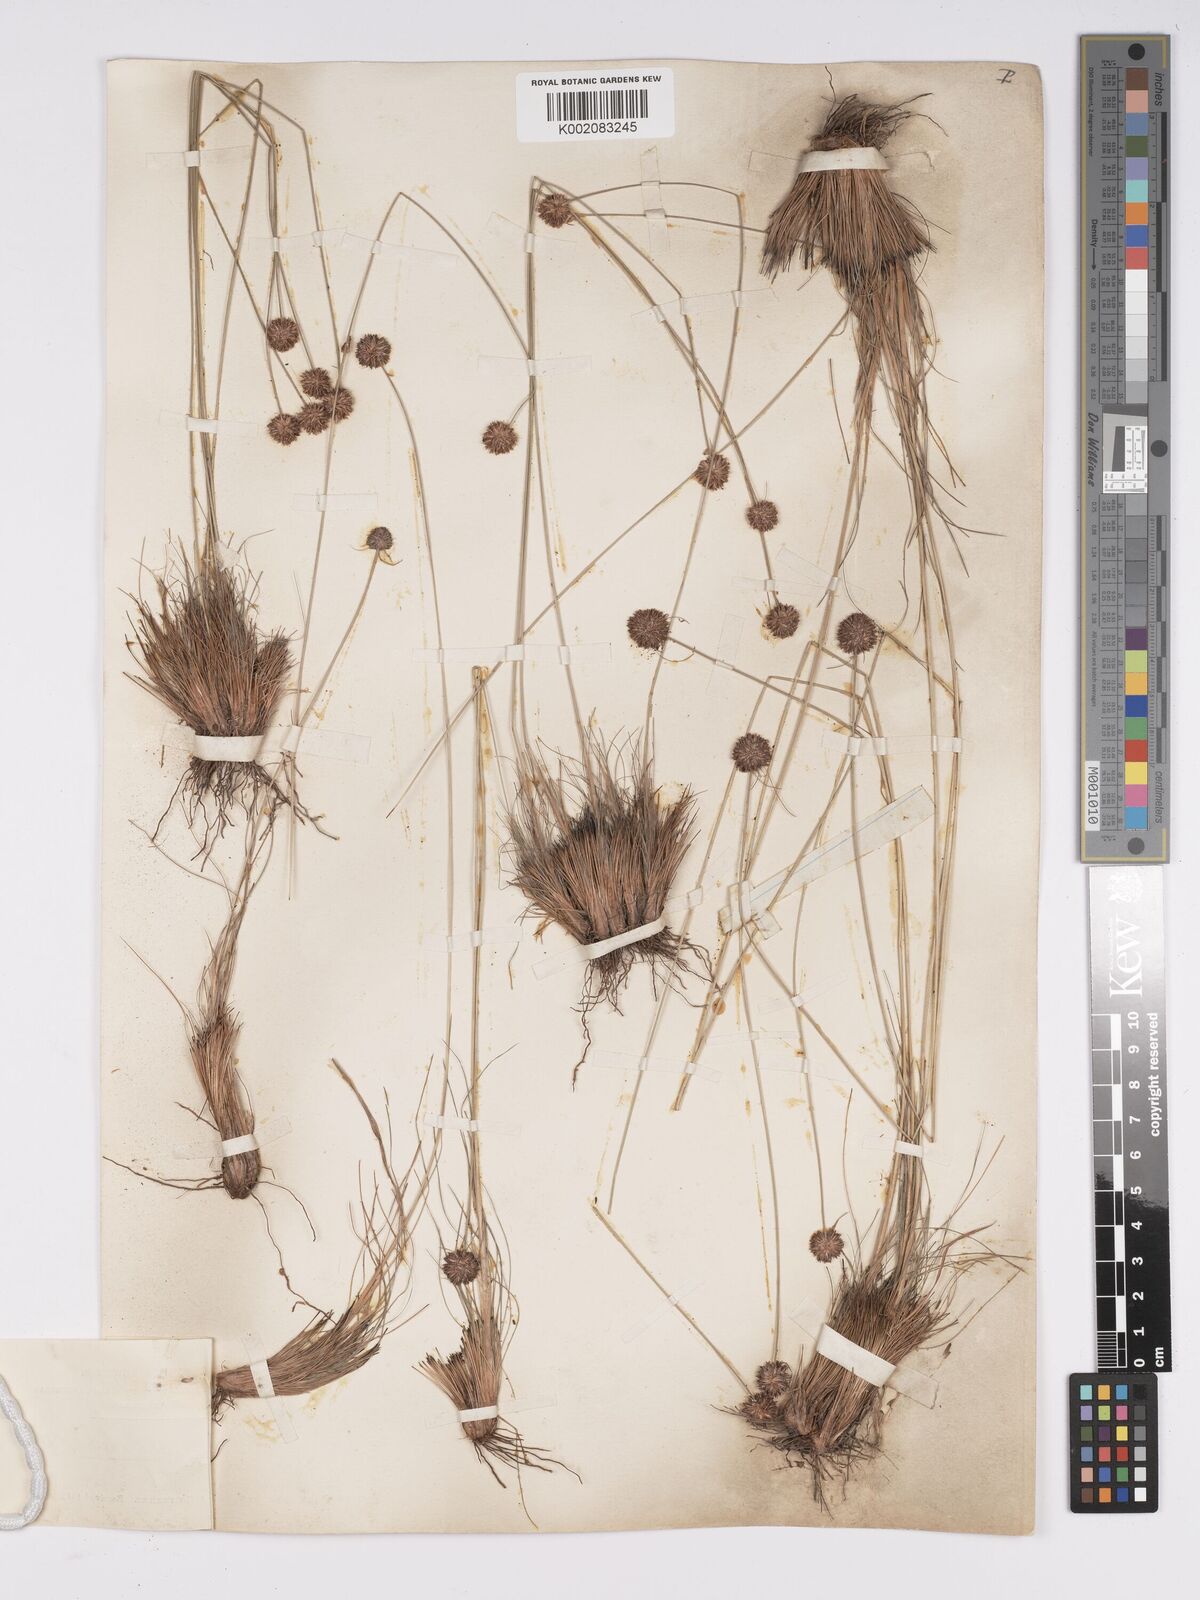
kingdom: Plantae
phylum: Tracheophyta
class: Liliopsida
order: Poales
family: Cyperaceae
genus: Bulbostylis
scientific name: Bulbostylis laniceps
